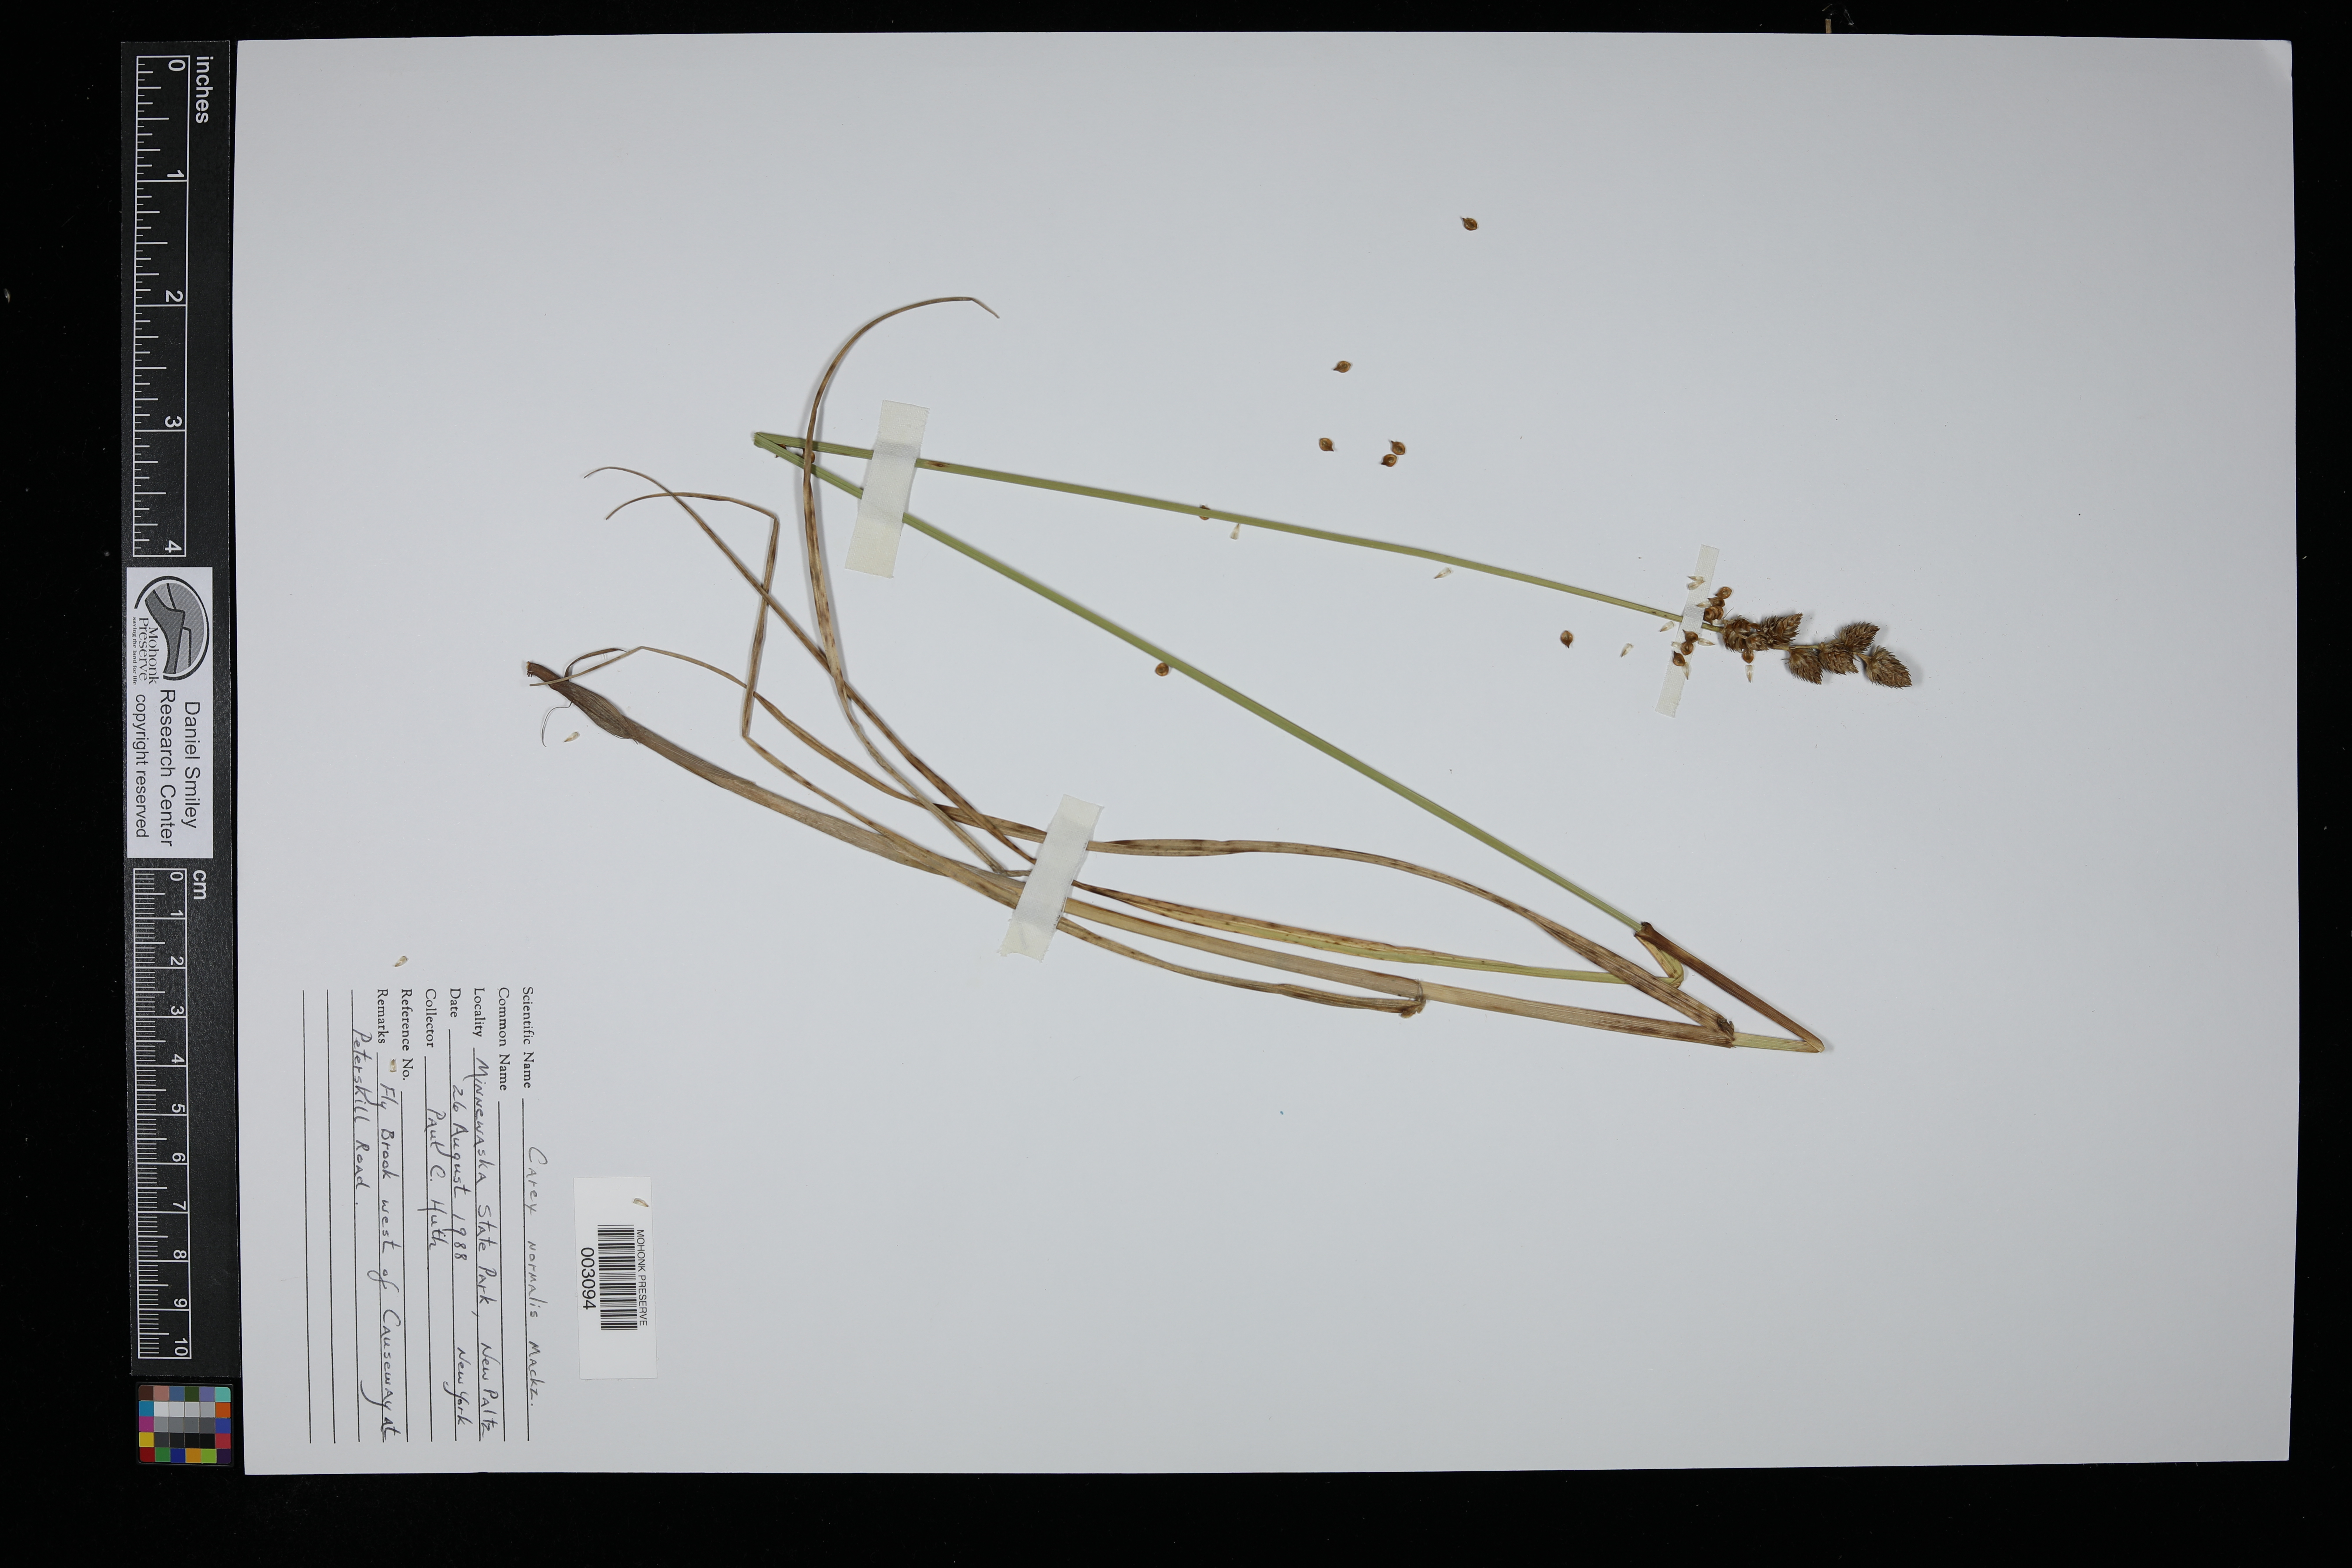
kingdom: Plantae
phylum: Tracheophyta
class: Liliopsida
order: Poales
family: Cyperaceae
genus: Carex
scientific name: Carex normalis
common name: Greater straw sedge
